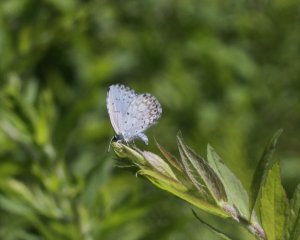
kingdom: Animalia
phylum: Arthropoda
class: Insecta
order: Lepidoptera
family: Lycaenidae
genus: Cyaniris
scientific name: Cyaniris neglecta
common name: Summer Azure
